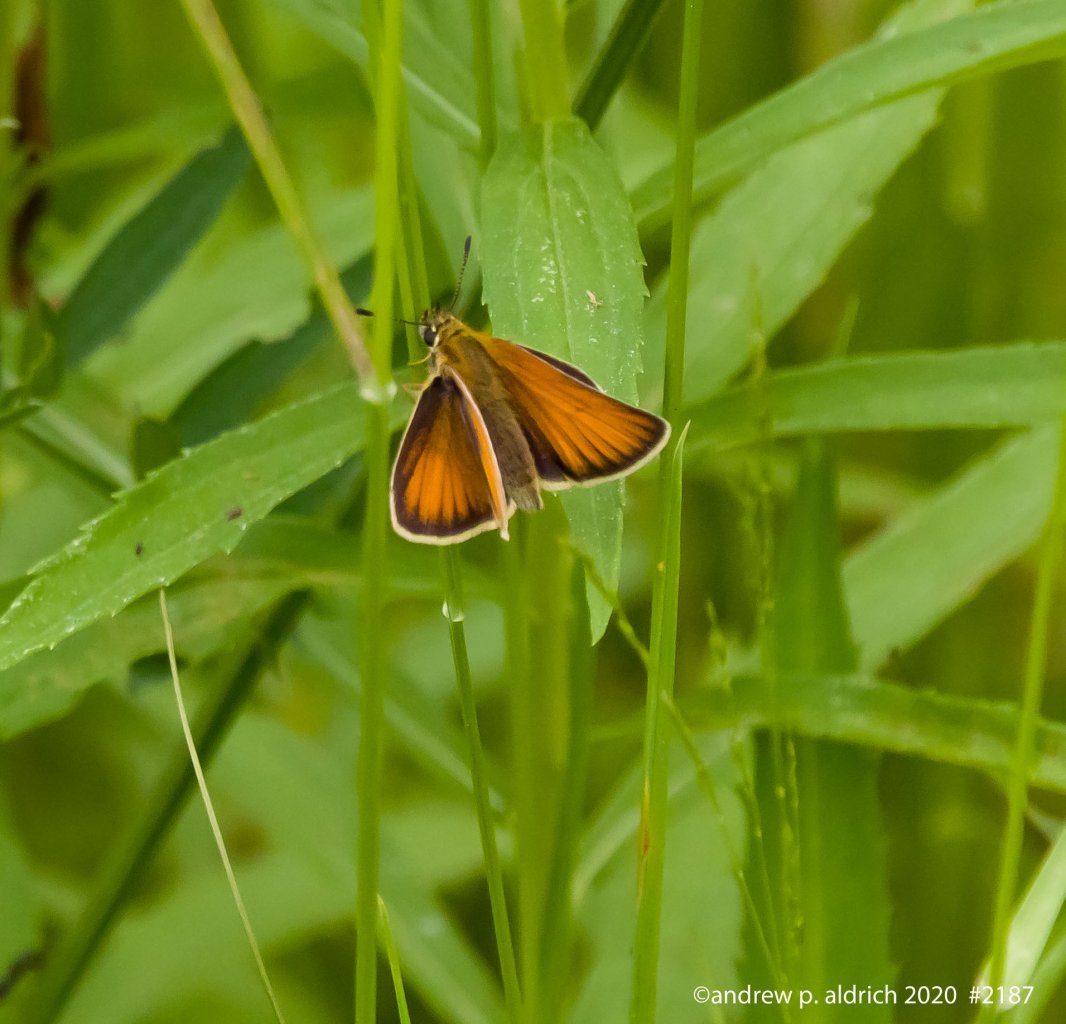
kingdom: Animalia
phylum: Arthropoda
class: Insecta
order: Lepidoptera
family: Hesperiidae
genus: Thymelicus
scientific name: Thymelicus lineola
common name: European Skipper
